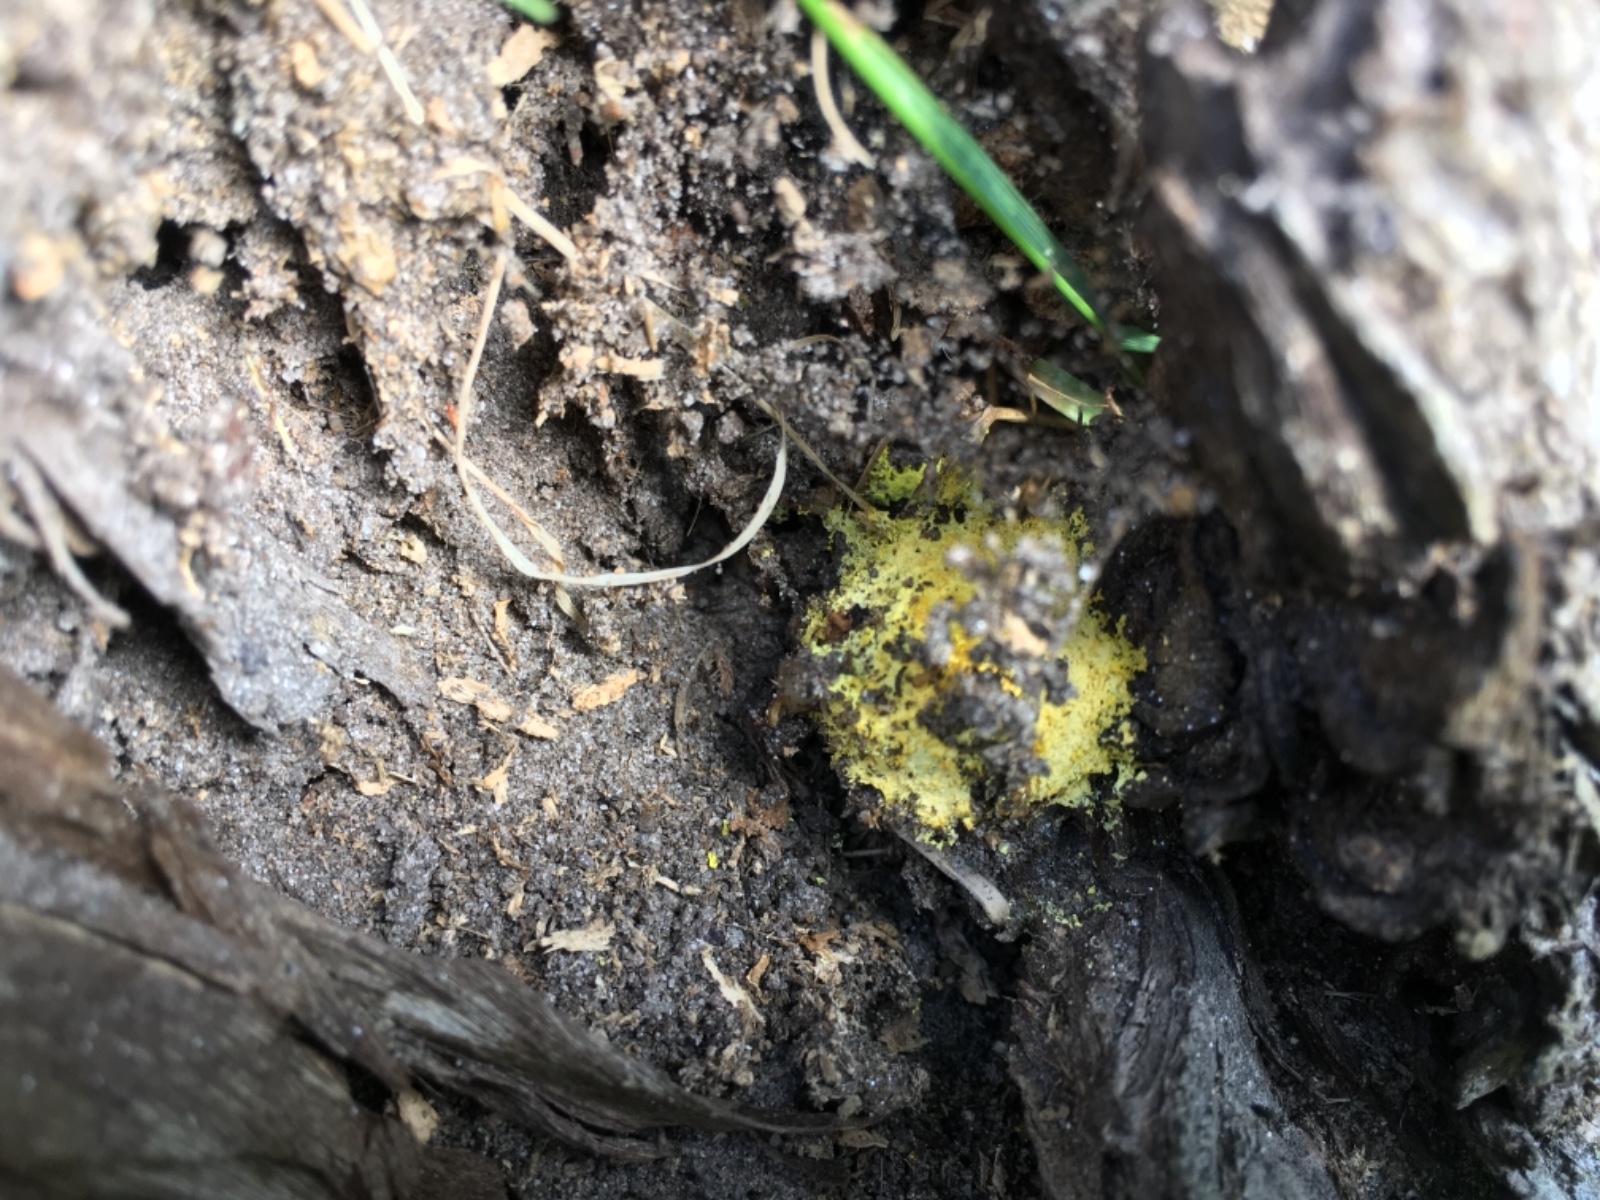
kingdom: Protozoa
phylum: Mycetozoa
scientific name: Mycetozoa
